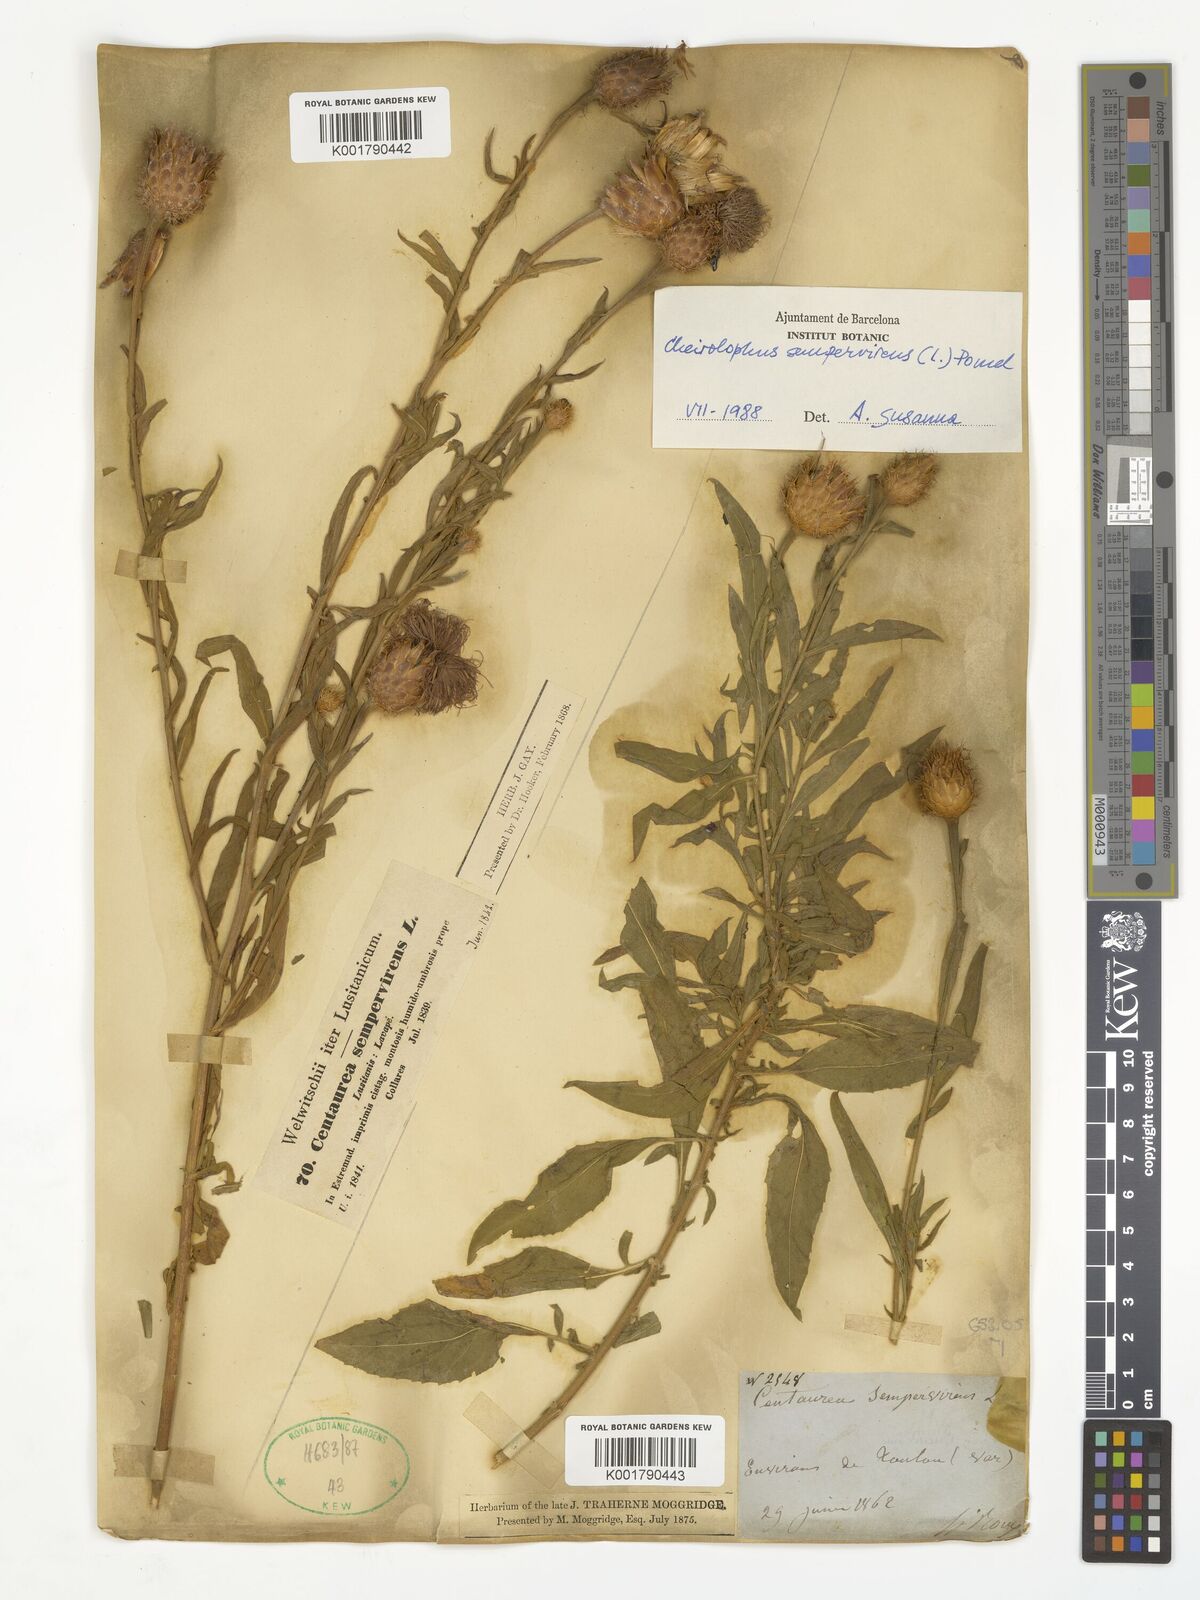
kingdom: Plantae
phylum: Tracheophyta
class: Magnoliopsida
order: Asterales
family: Asteraceae
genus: Cheirolophus
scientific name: Cheirolophus sempervirens
